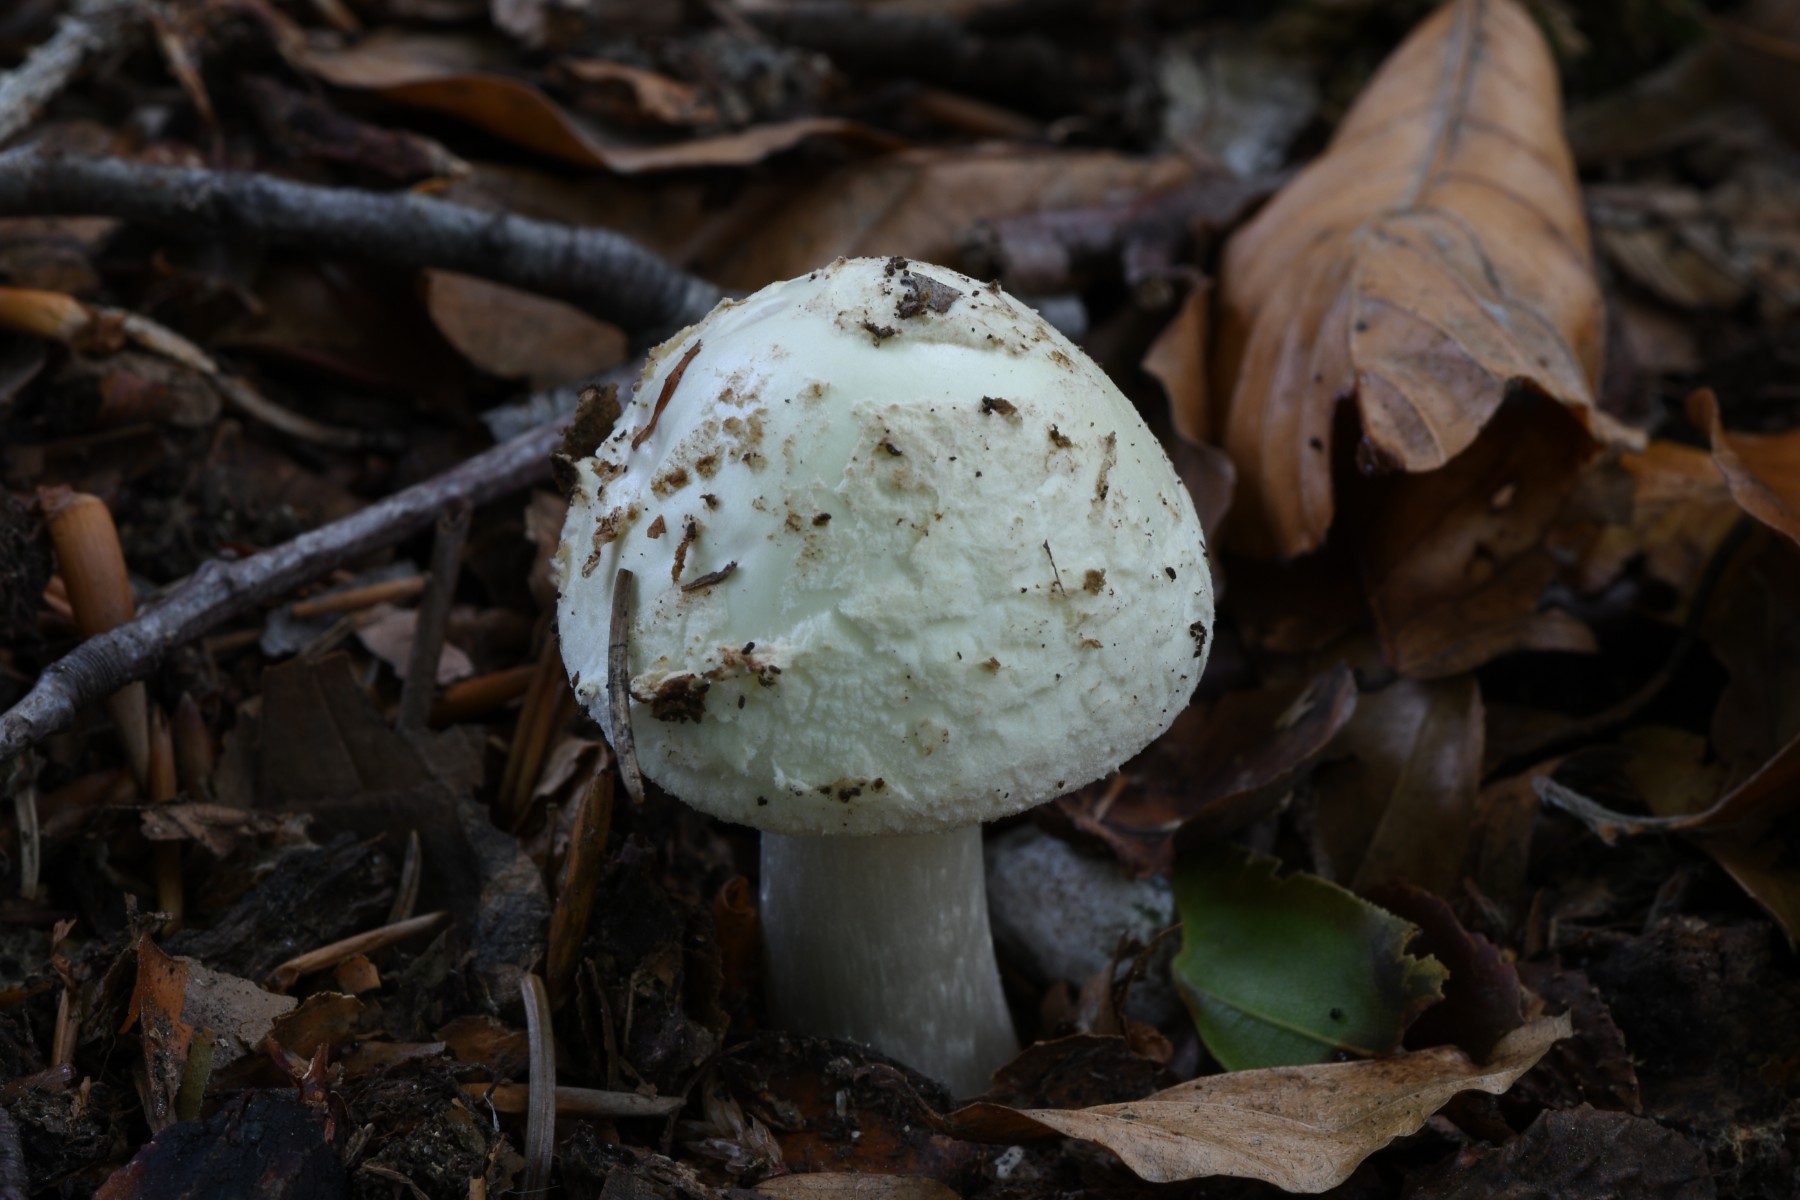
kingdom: Fungi
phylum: Basidiomycota
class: Agaricomycetes
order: Agaricales
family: Amanitaceae
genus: Amanita
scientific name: Amanita citrina
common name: kugleknoldet fluesvamp
